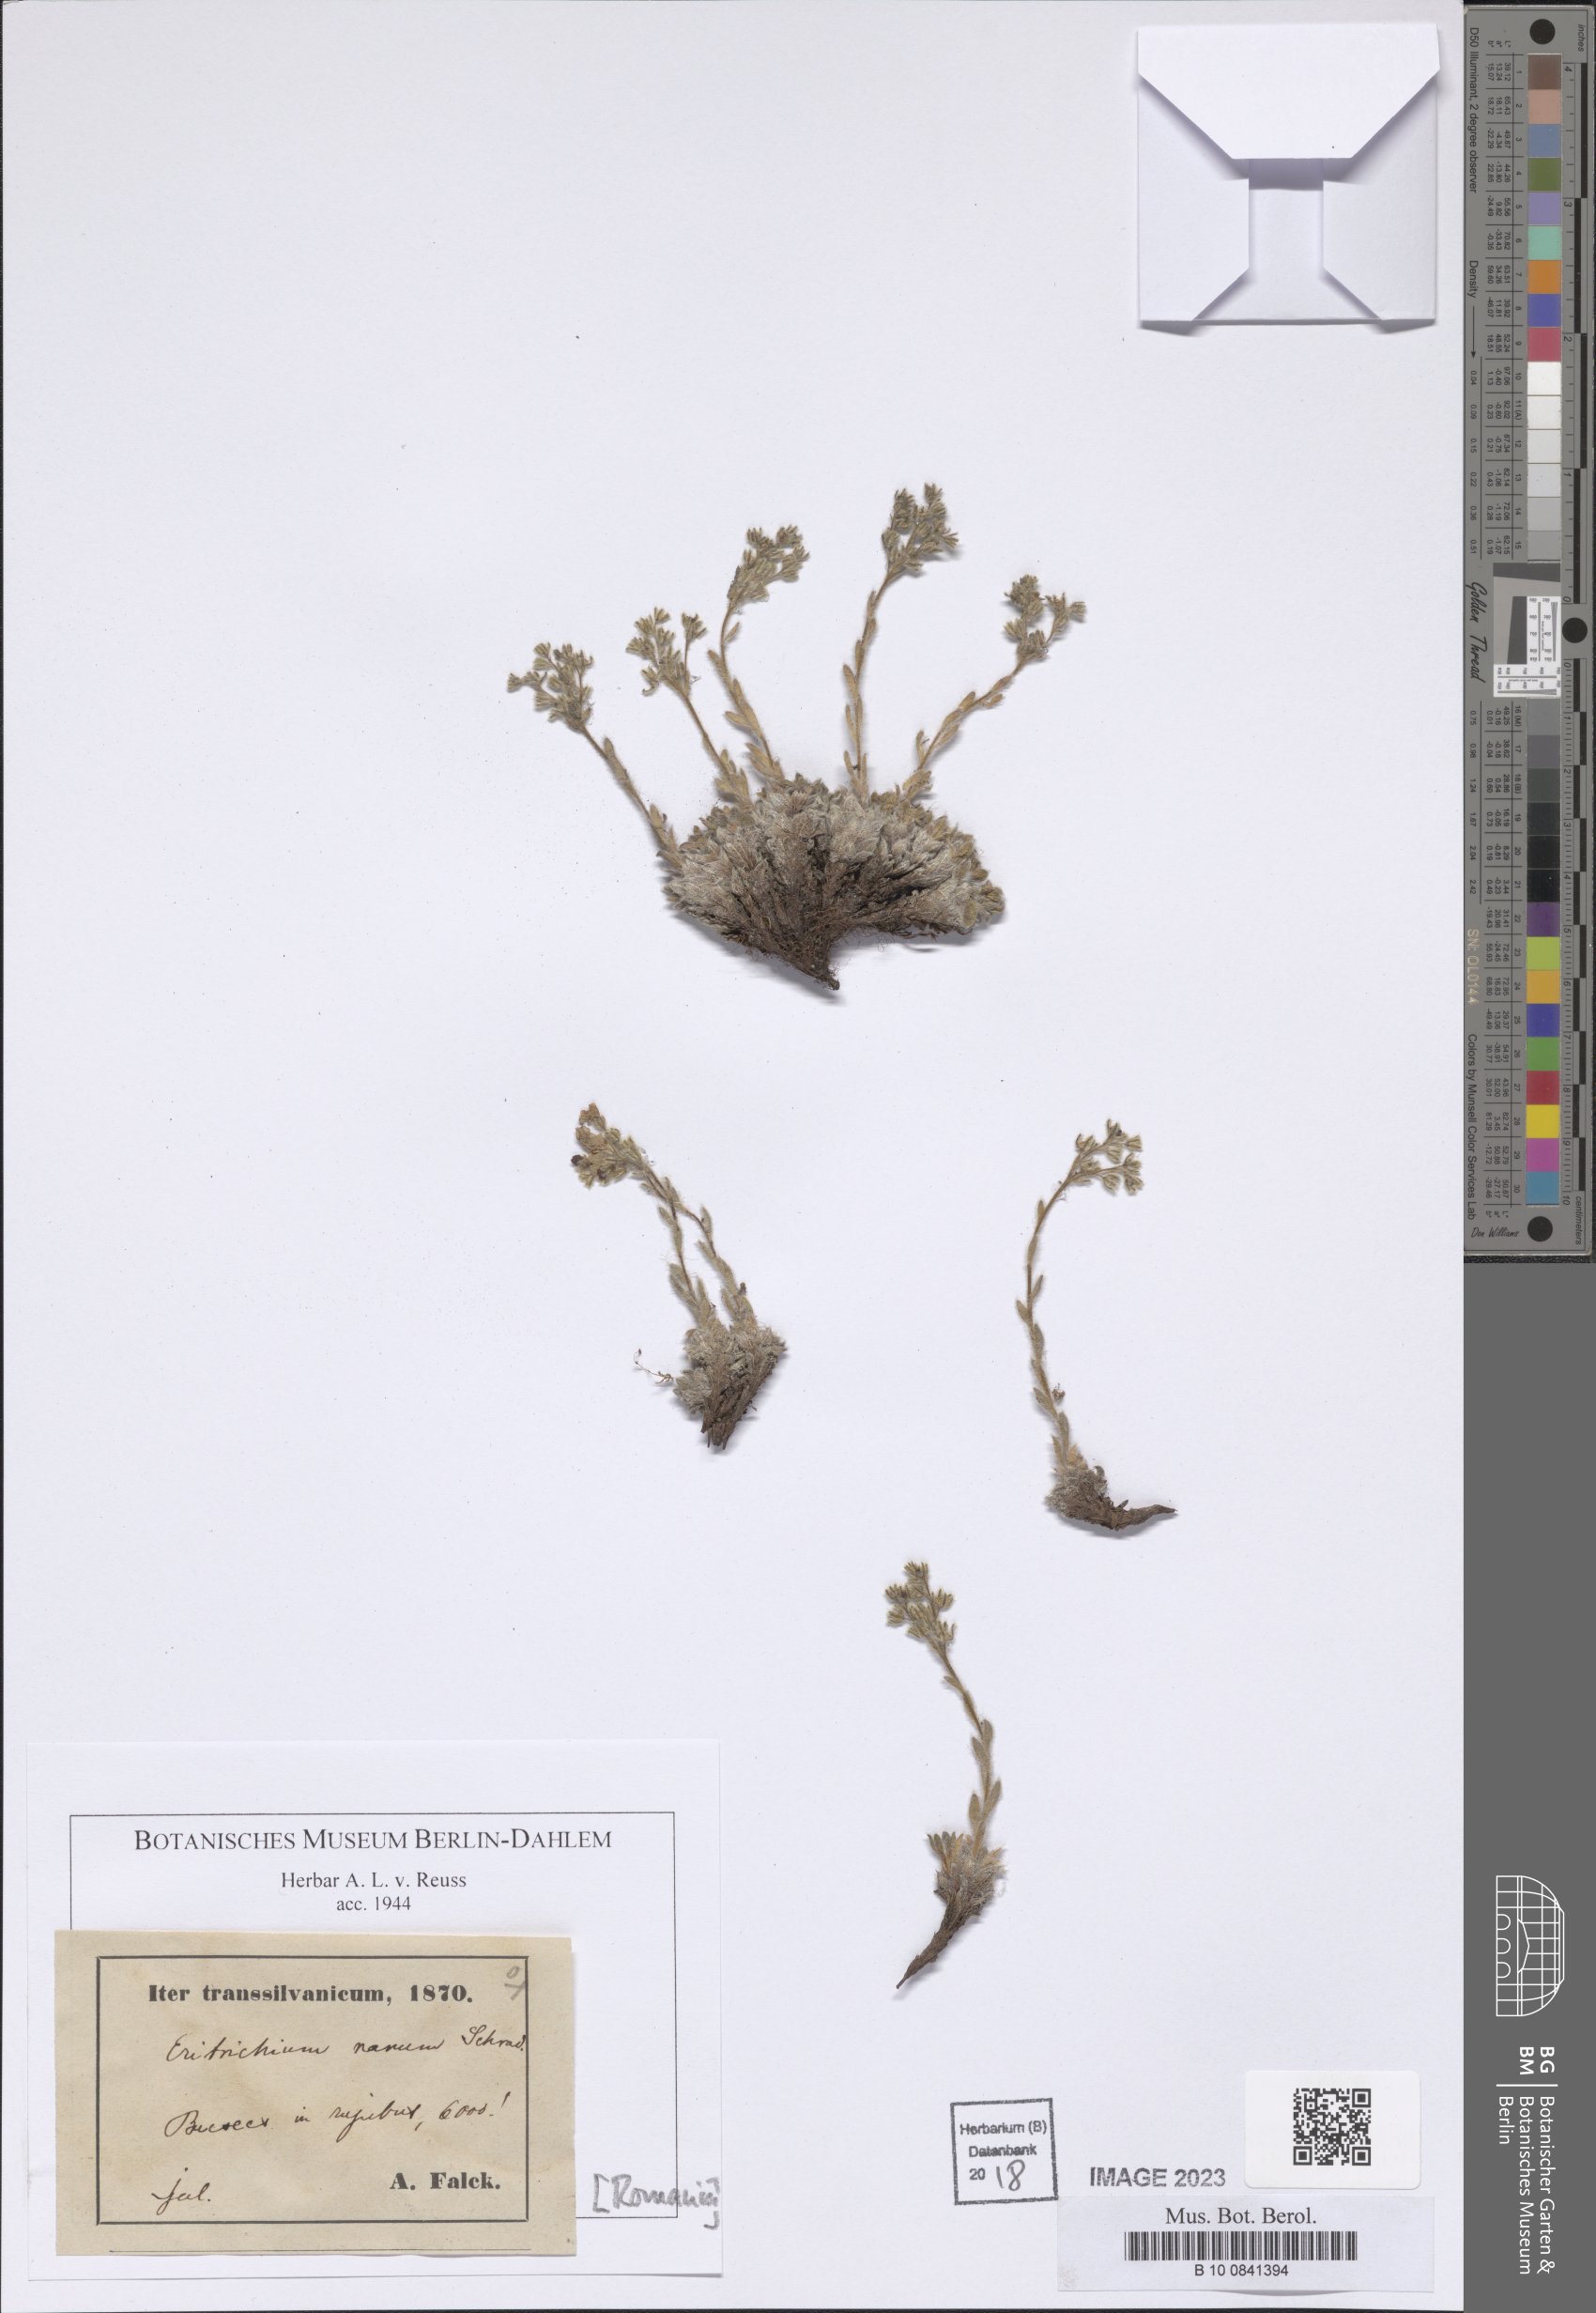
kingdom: Plantae
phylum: Tracheophyta
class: Magnoliopsida
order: Boraginales
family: Boraginaceae
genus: Eritrichium
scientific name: Eritrichium nanum
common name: King-of-the-alps
